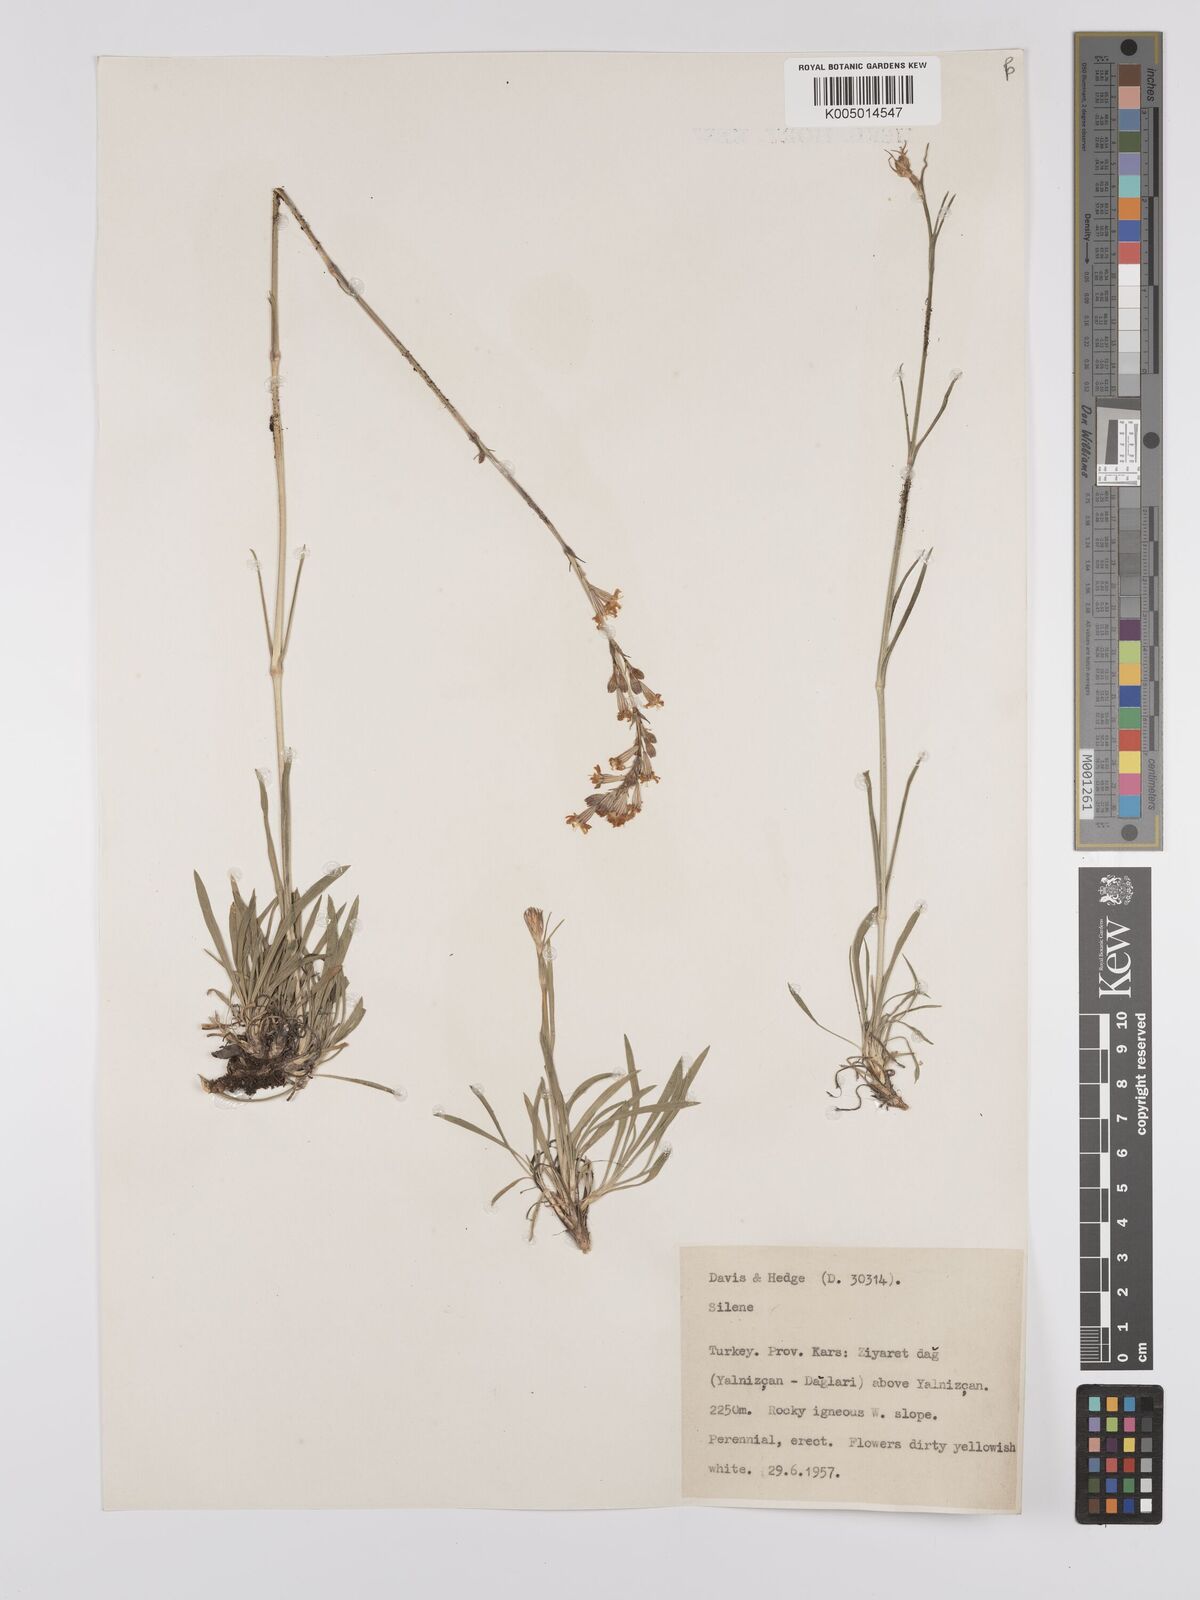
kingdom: Plantae
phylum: Tracheophyta
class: Magnoliopsida
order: Caryophyllales
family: Caryophyllaceae
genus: Silene
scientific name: Silene
